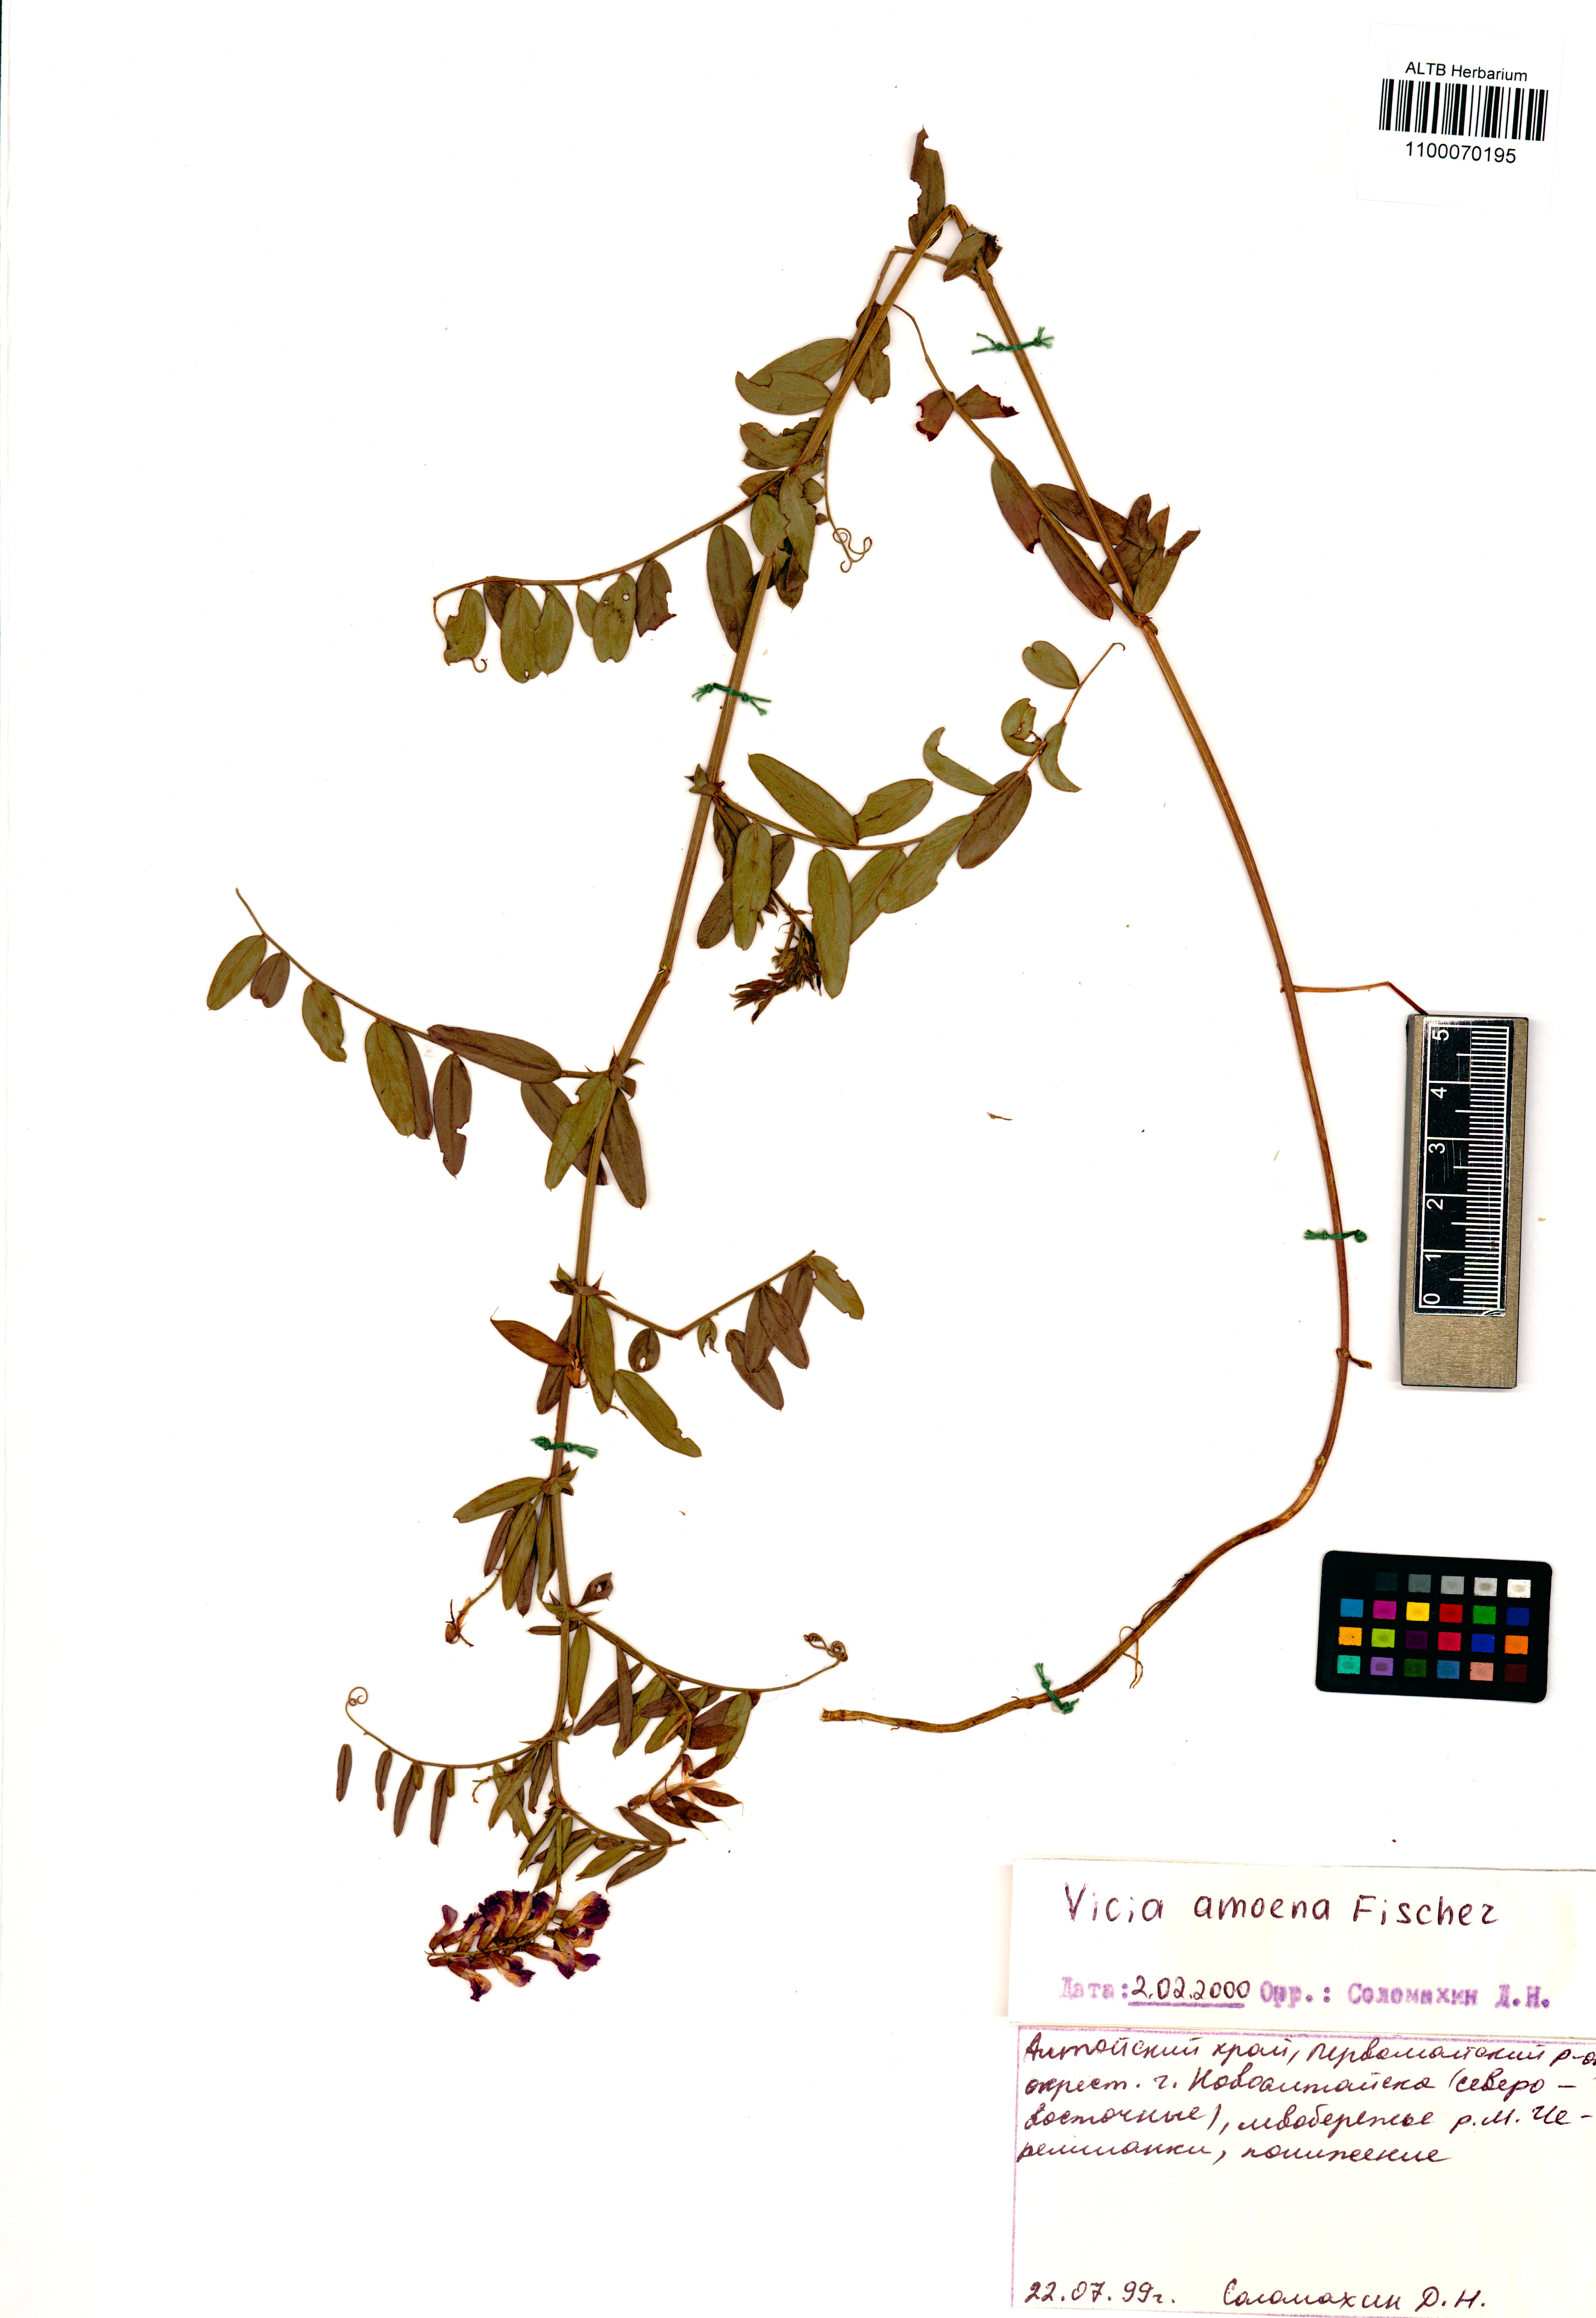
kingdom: Plantae
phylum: Tracheophyta
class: Magnoliopsida
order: Fabales
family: Fabaceae
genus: Vicia
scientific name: Vicia amoena
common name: Cheder ebs
